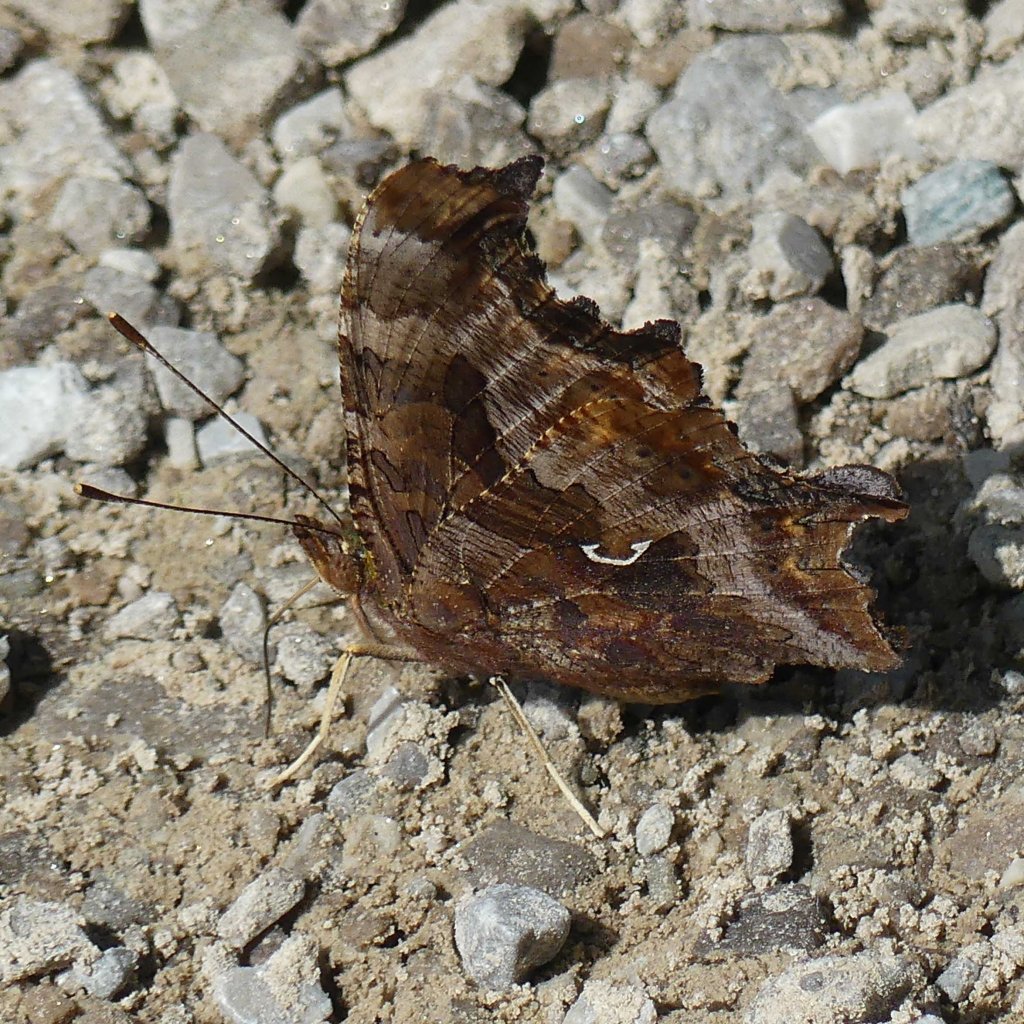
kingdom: Animalia
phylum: Arthropoda
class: Insecta
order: Lepidoptera
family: Nymphalidae
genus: Polygonia
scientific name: Polygonia comma
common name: Eastern Comma
